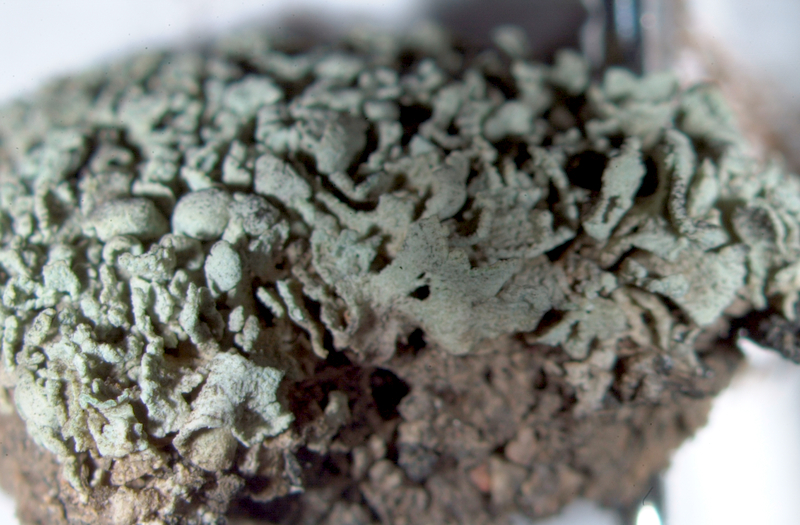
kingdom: Fungi
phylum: Ascomycota
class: Lecanoromycetes
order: Pertusariales
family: Icmadophilaceae
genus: Siphula
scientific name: Siphula flavovirens
